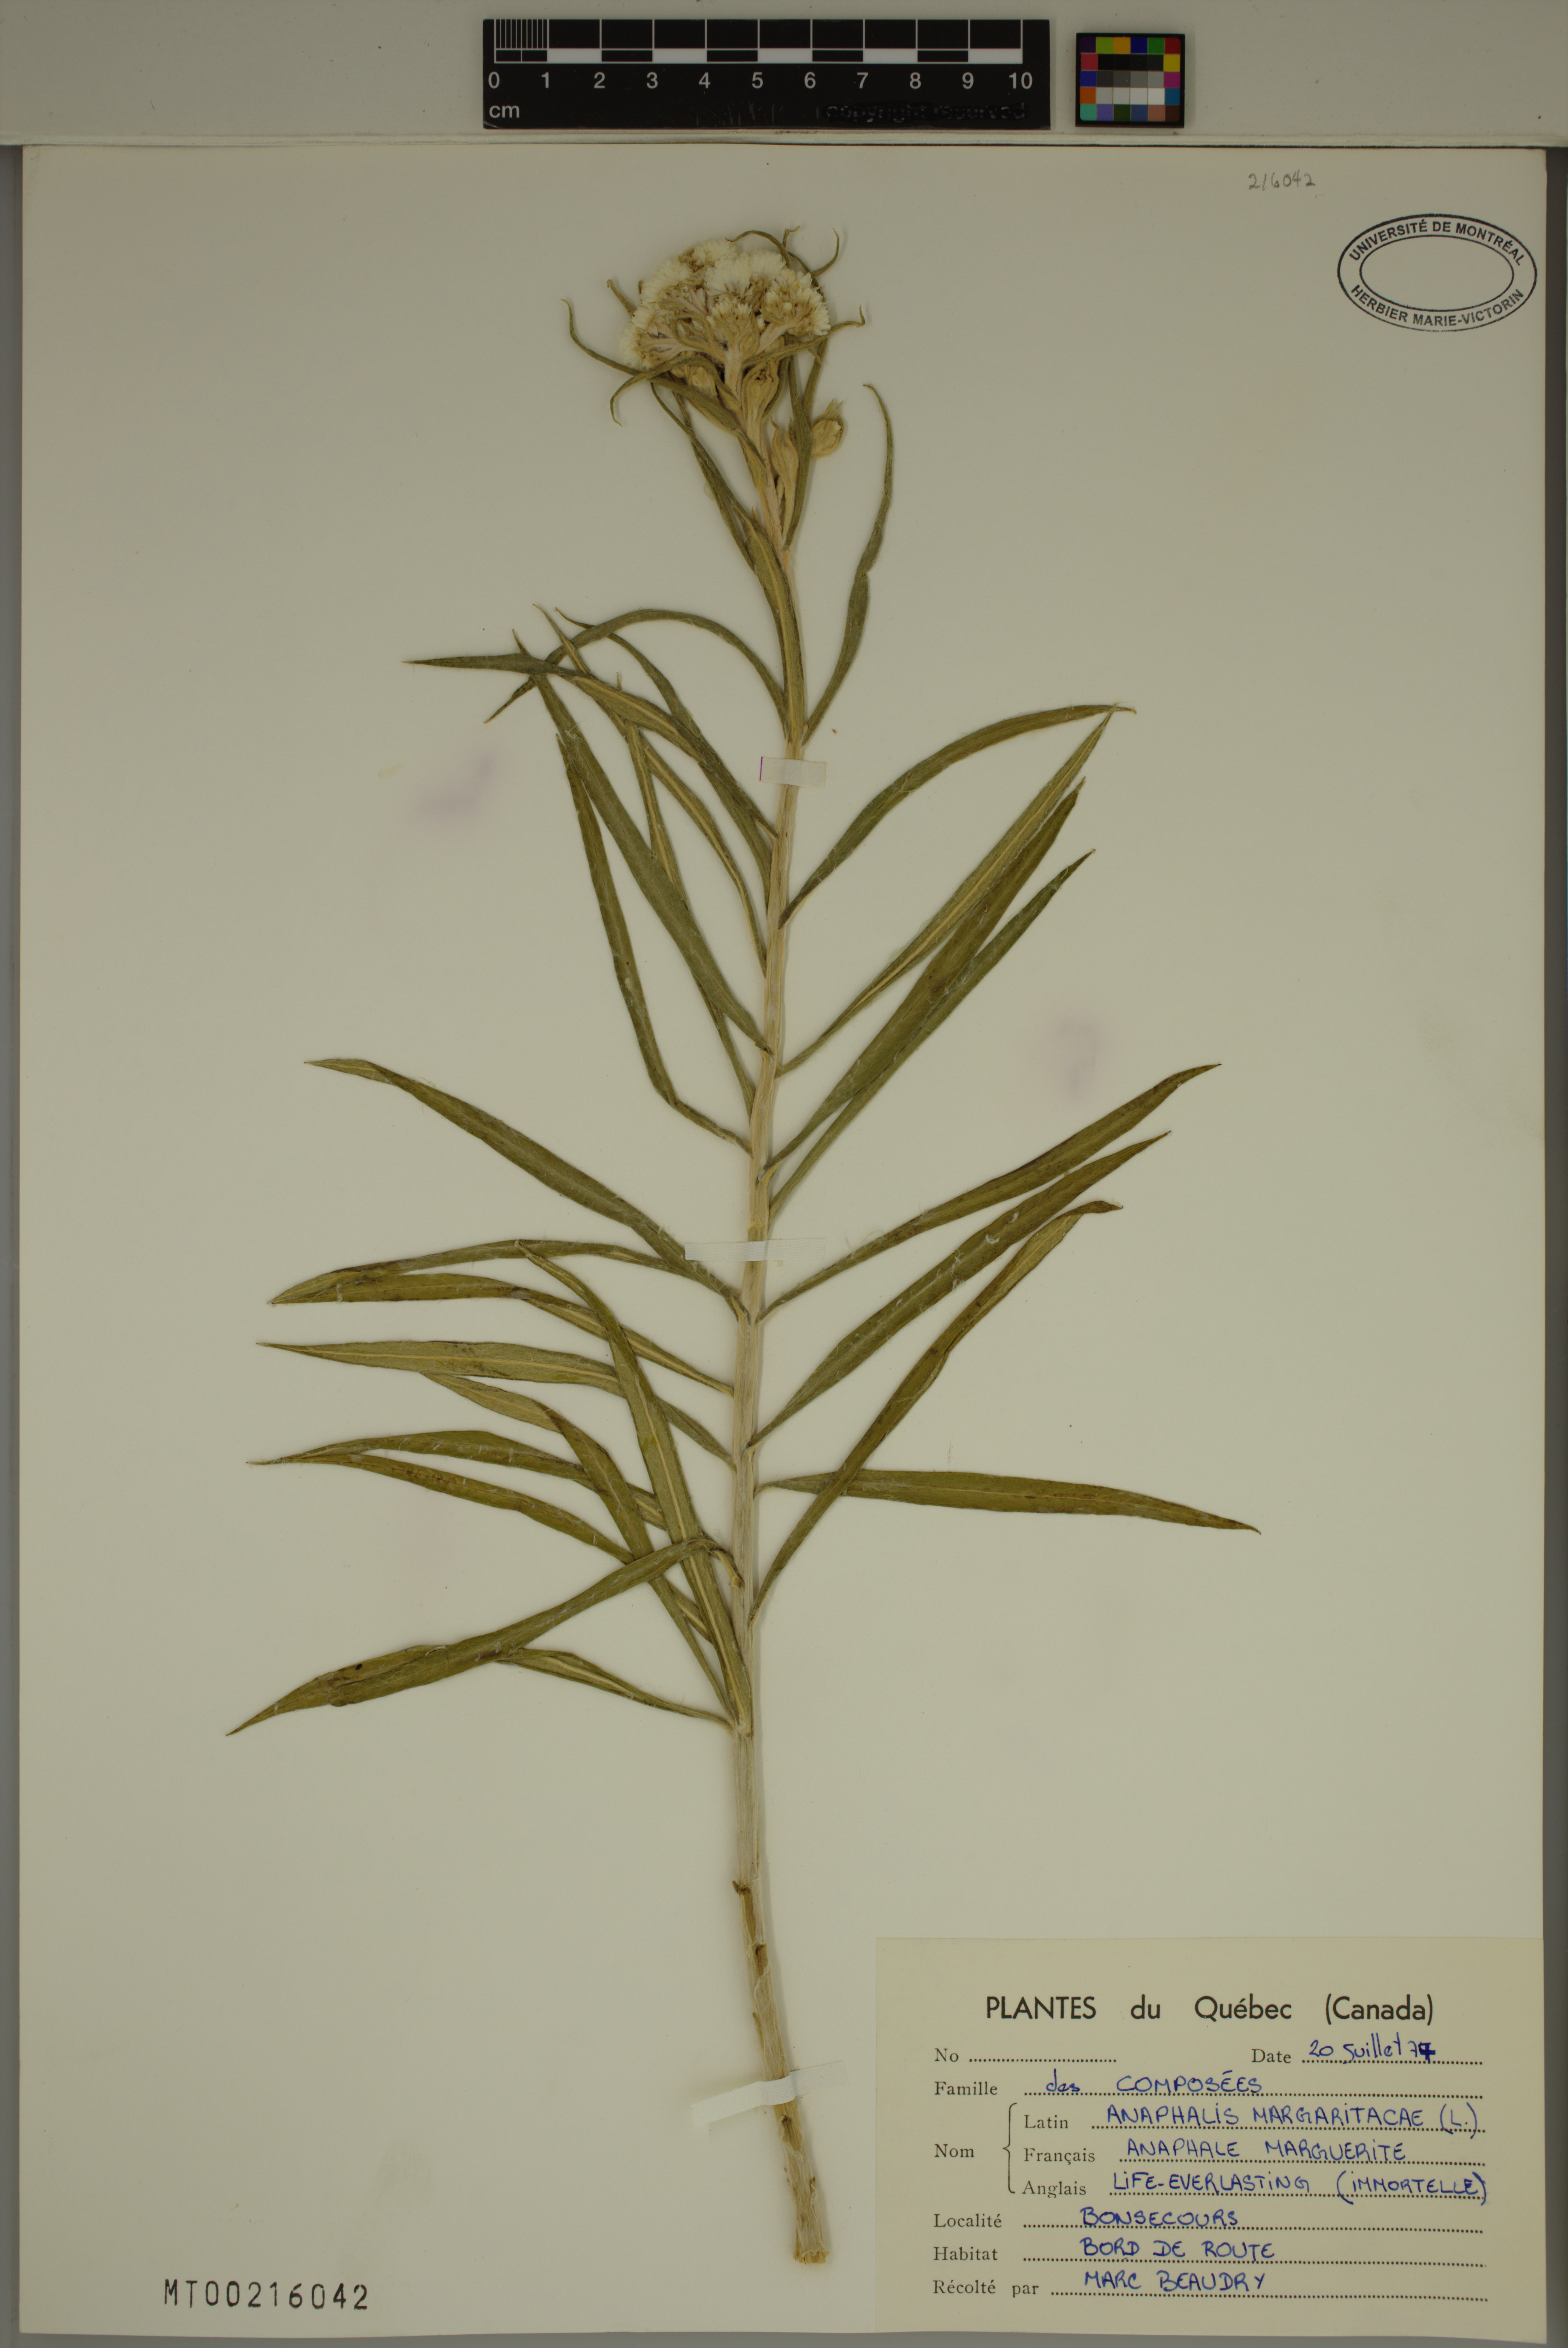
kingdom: Plantae
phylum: Tracheophyta
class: Magnoliopsida
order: Asterales
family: Asteraceae
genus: Anaphalis
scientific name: Anaphalis margaritacea
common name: Pearly everlasting
